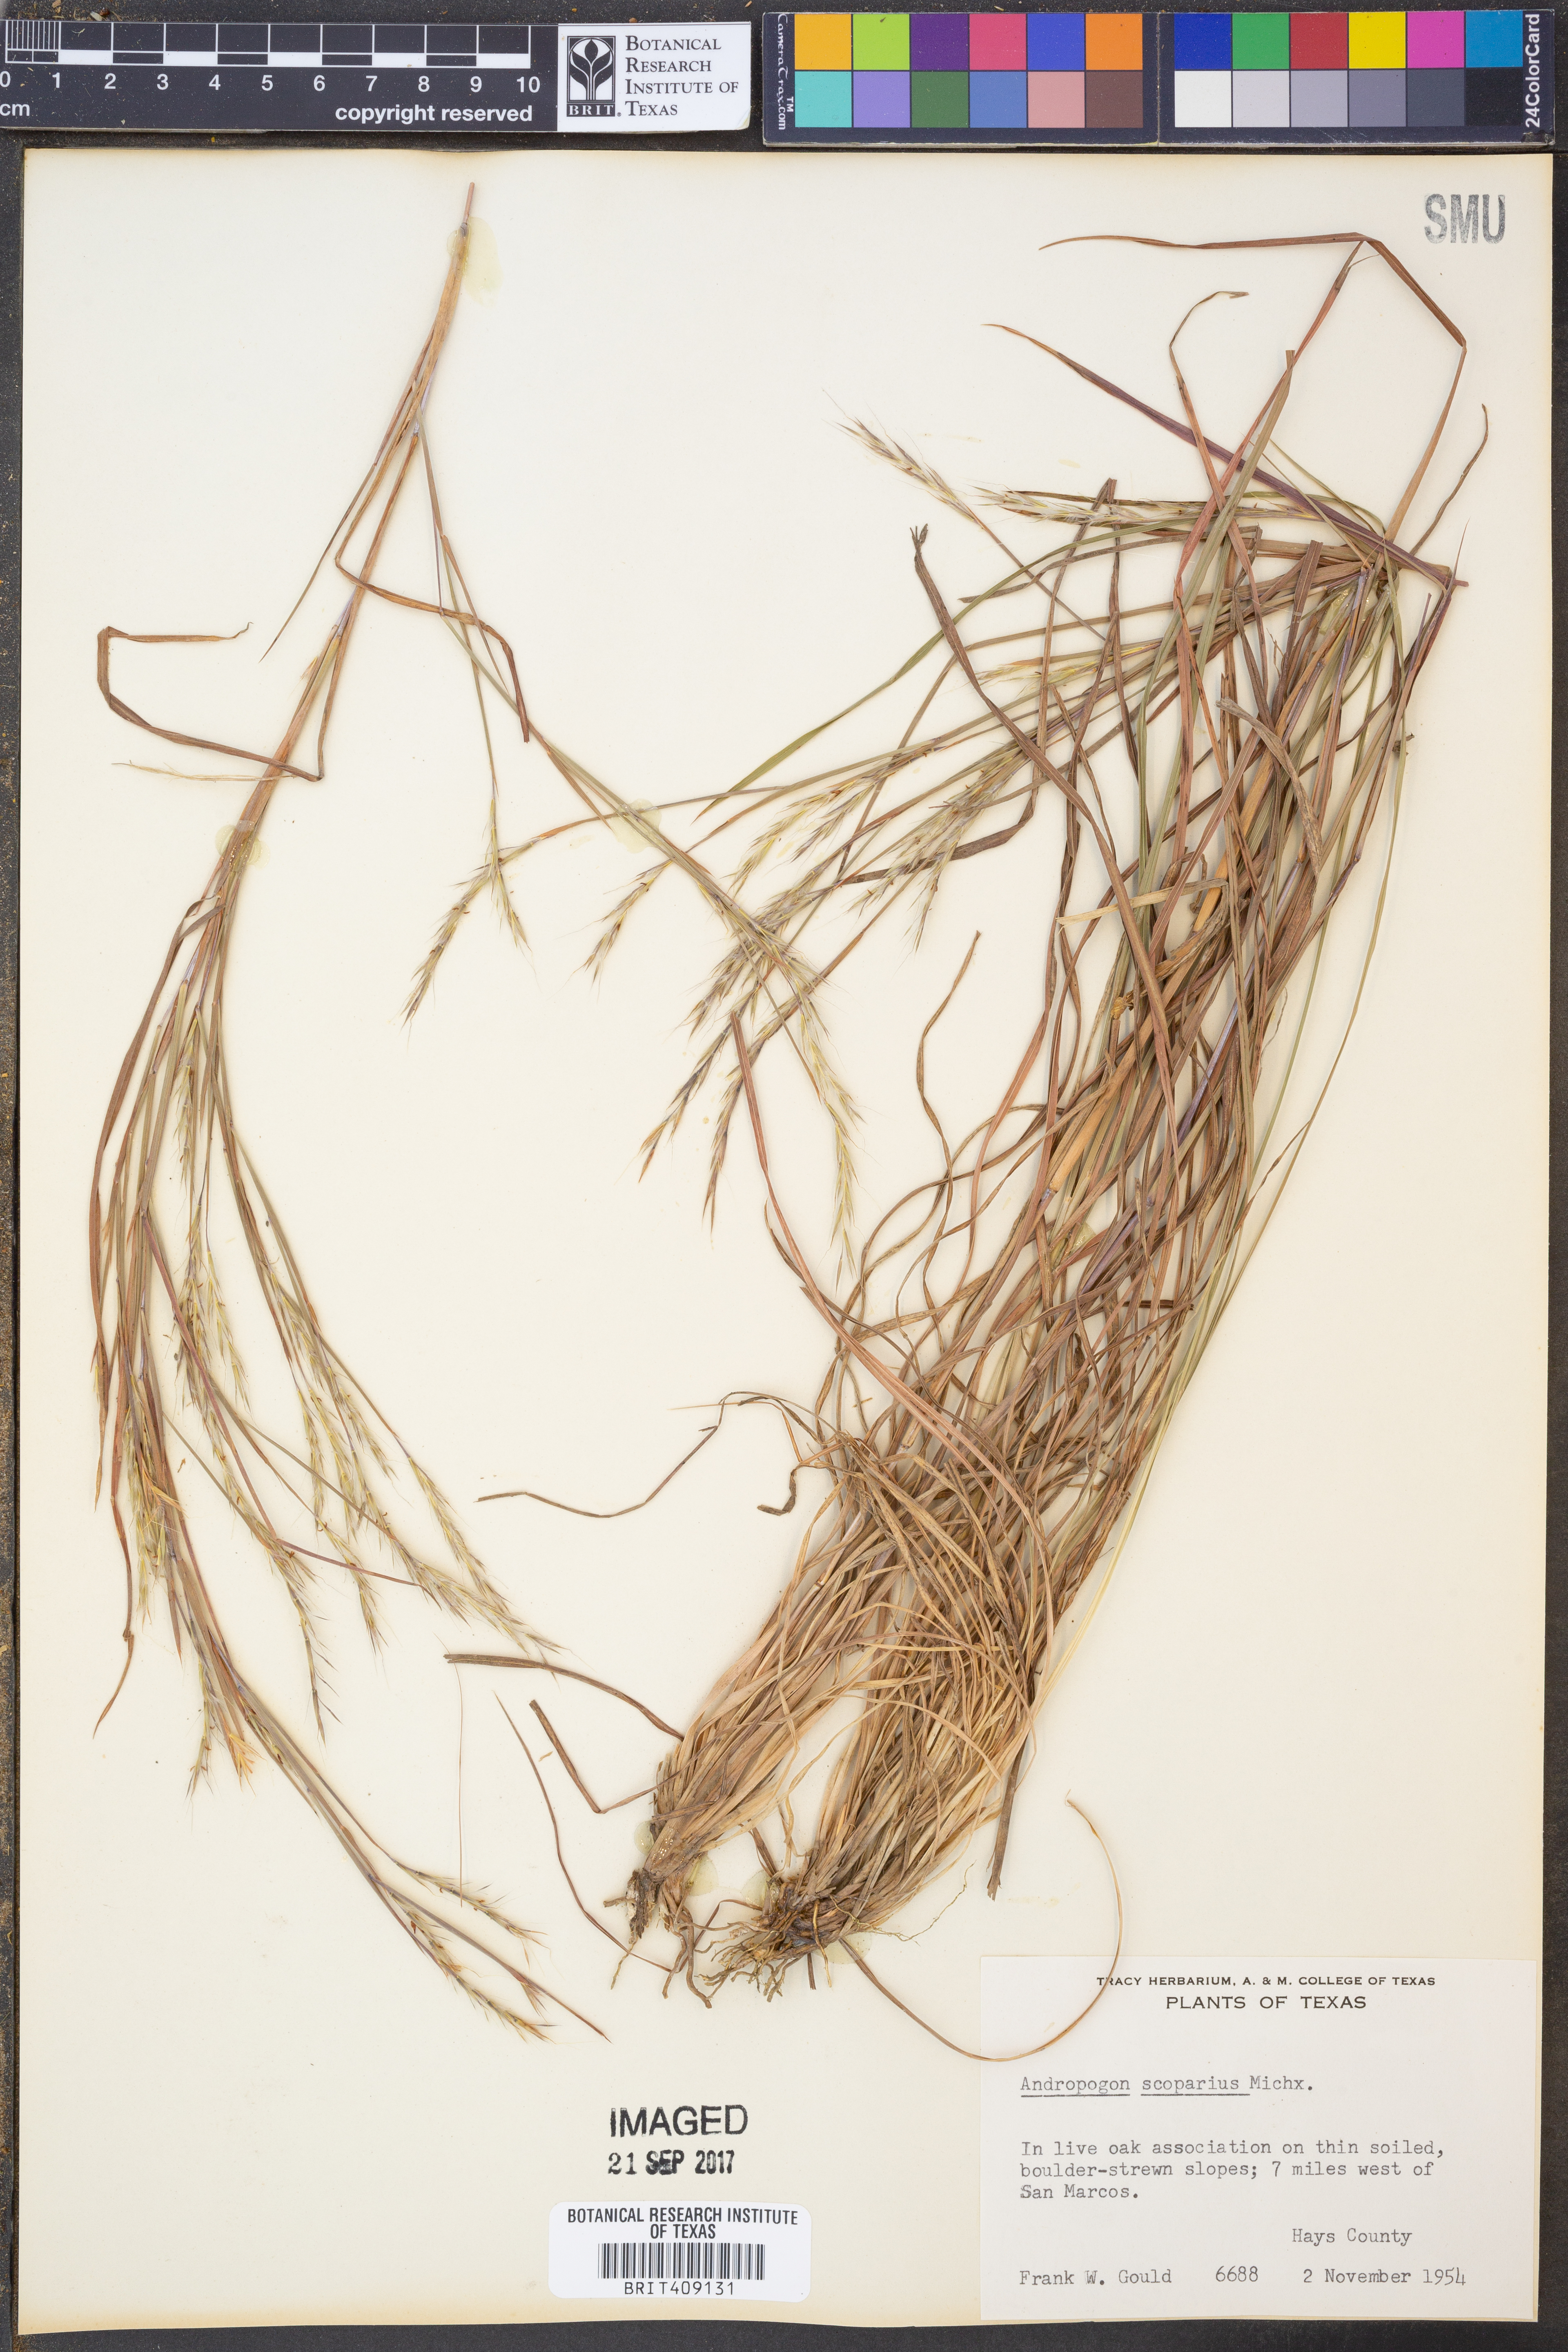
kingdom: Plantae
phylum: Tracheophyta
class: Liliopsida
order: Poales
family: Poaceae
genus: Schizachyrium
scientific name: Schizachyrium scoparium
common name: Little bluestem
